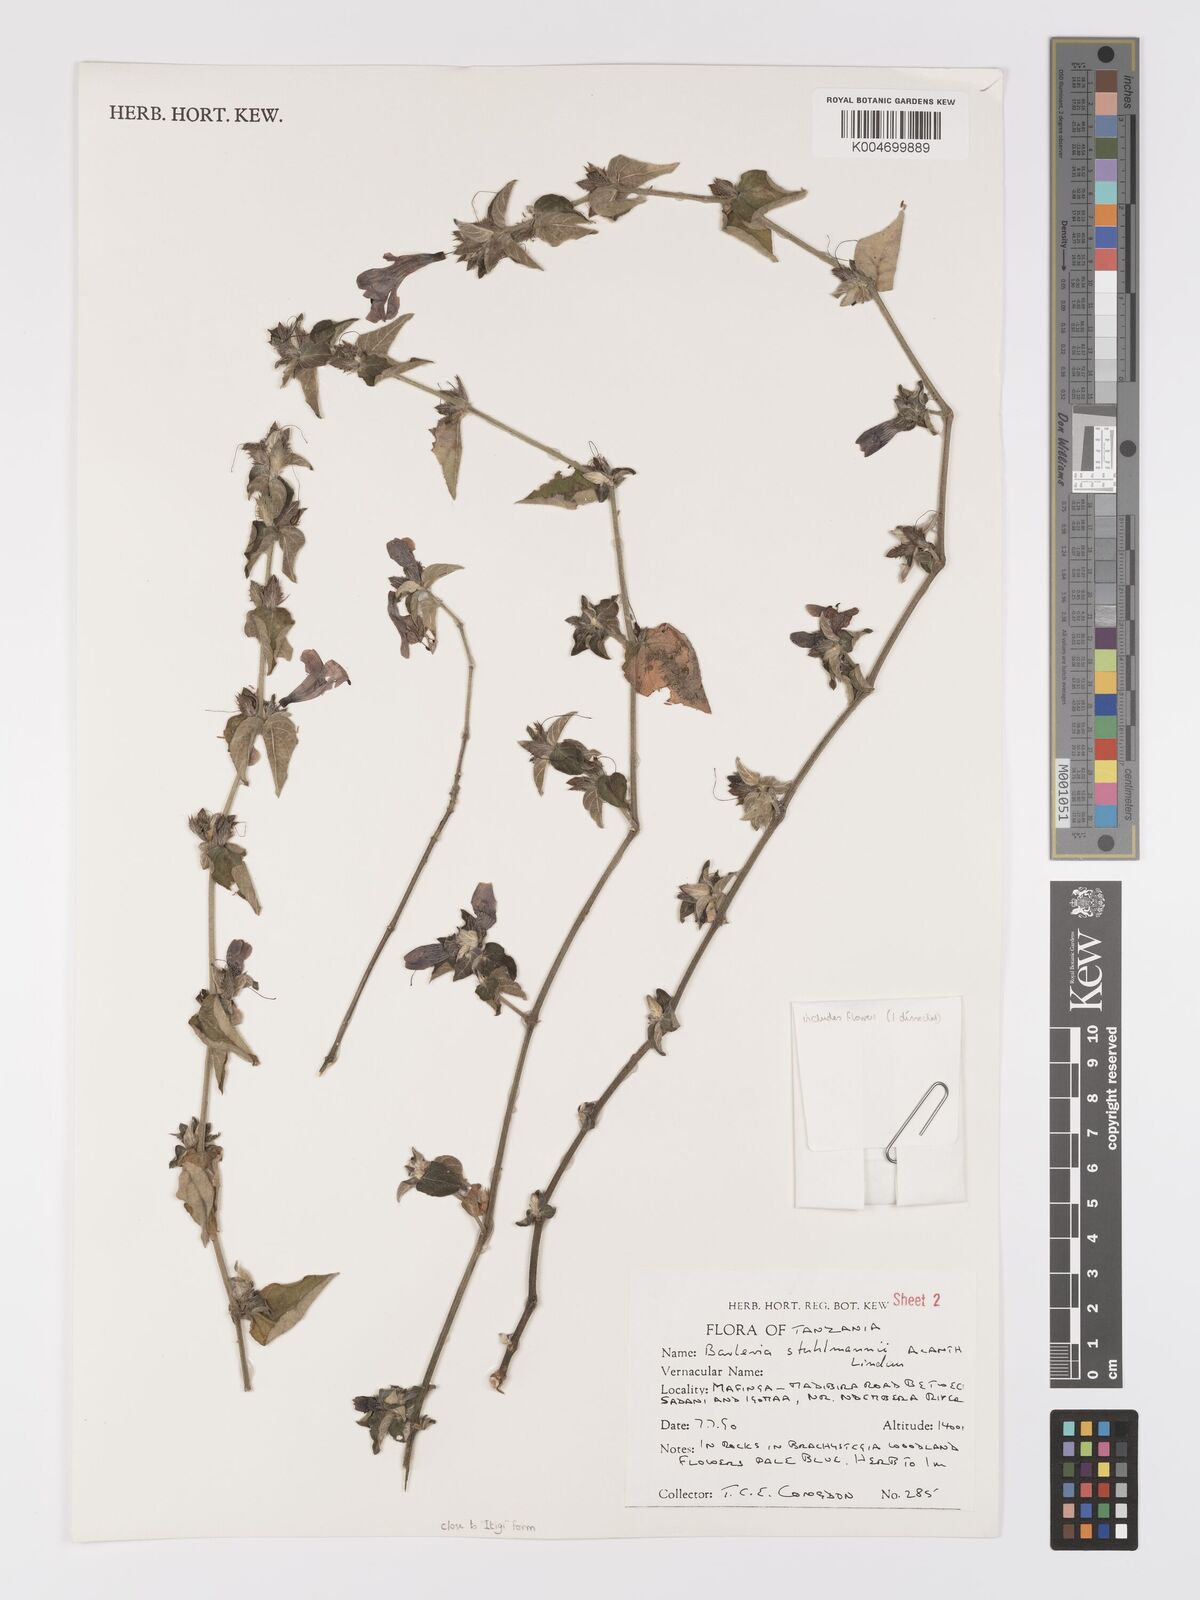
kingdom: Plantae
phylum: Tracheophyta
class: Magnoliopsida
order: Lamiales
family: Acanthaceae
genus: Barleria
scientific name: Barleria ventricosa
